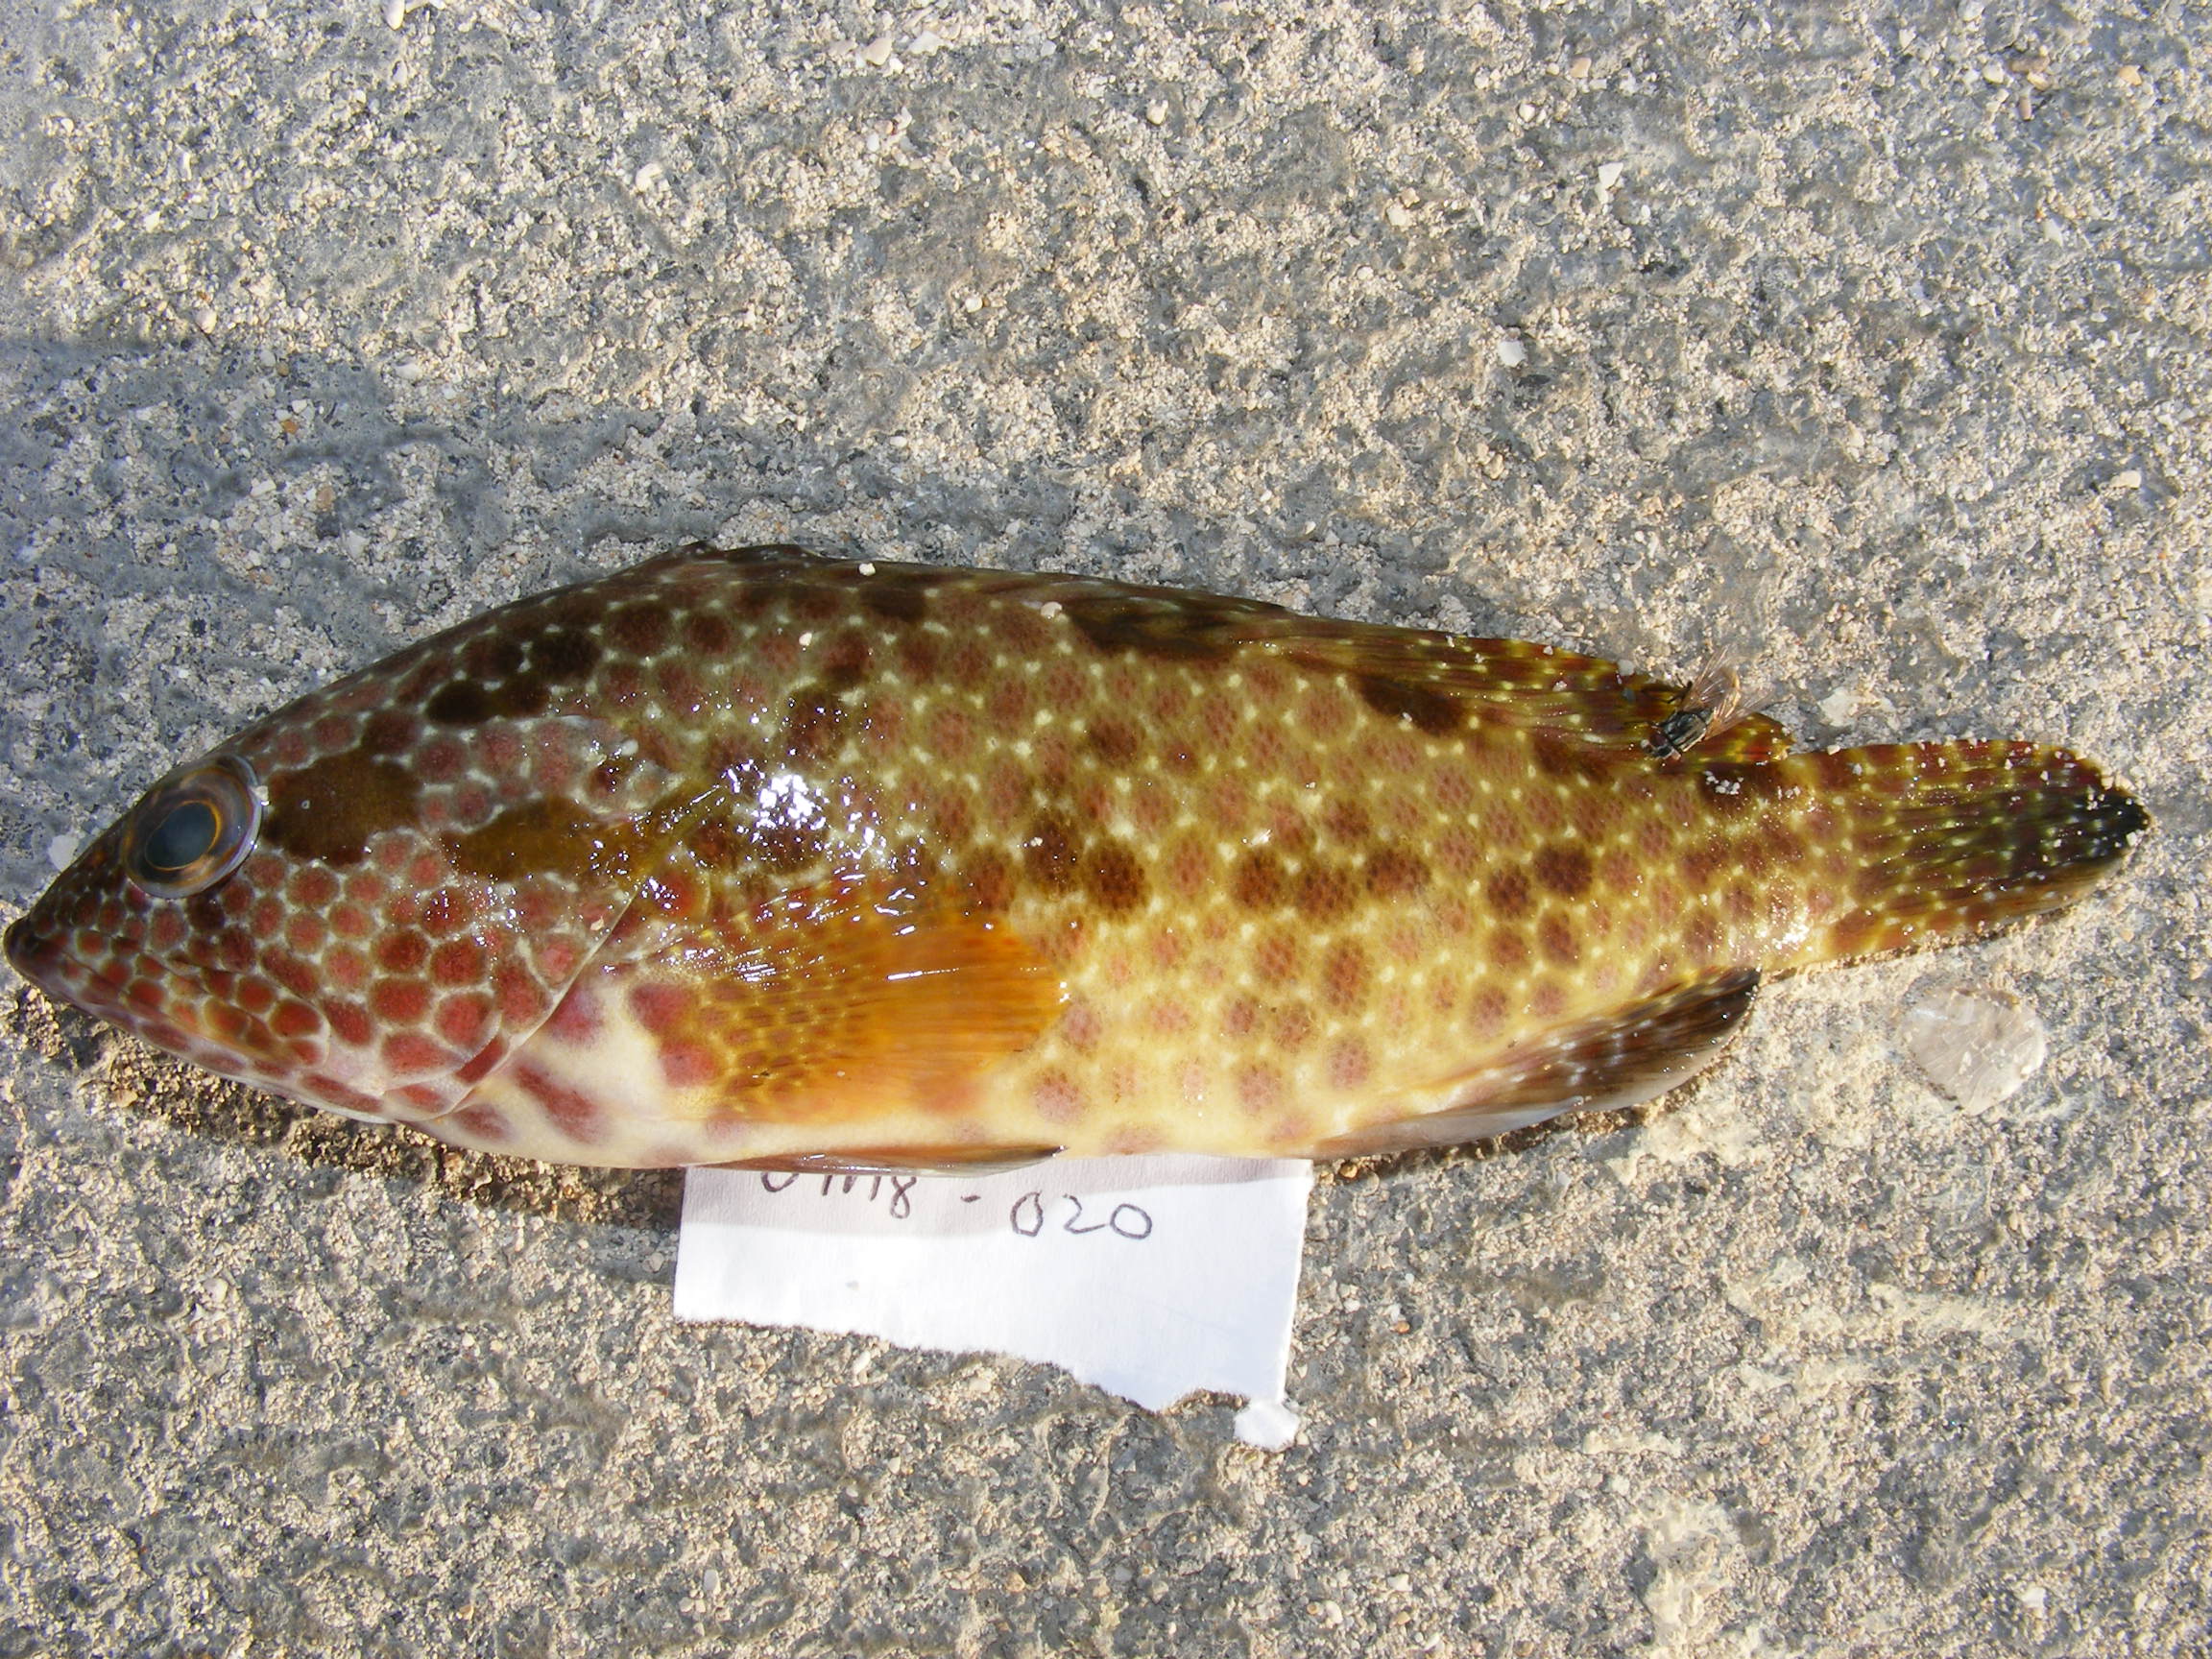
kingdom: Animalia
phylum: Chordata
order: Perciformes
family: Serranidae
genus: Epinephelus
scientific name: Epinephelus hexagonatus
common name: Hexagon grouper
